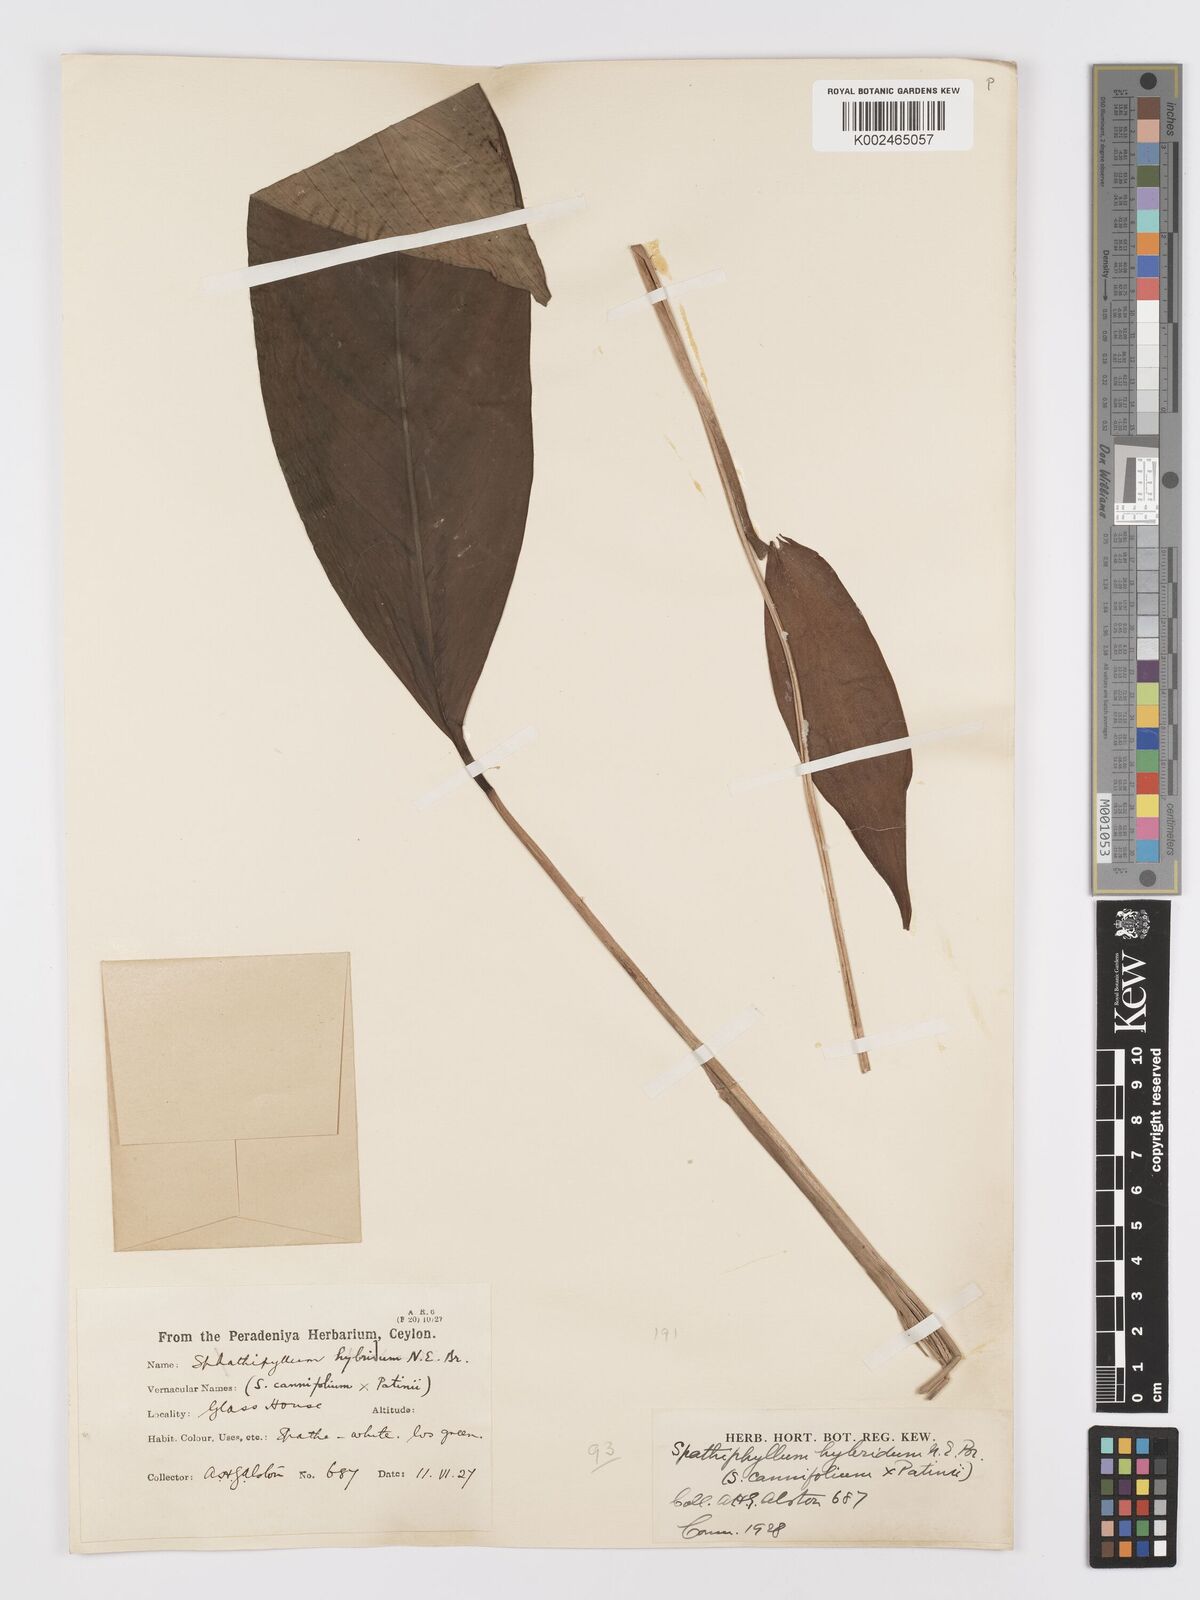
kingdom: Plantae
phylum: Tracheophyta
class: Liliopsida
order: Alismatales
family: Araceae
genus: Spathiphyllum
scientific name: Spathiphyllum hybridum
